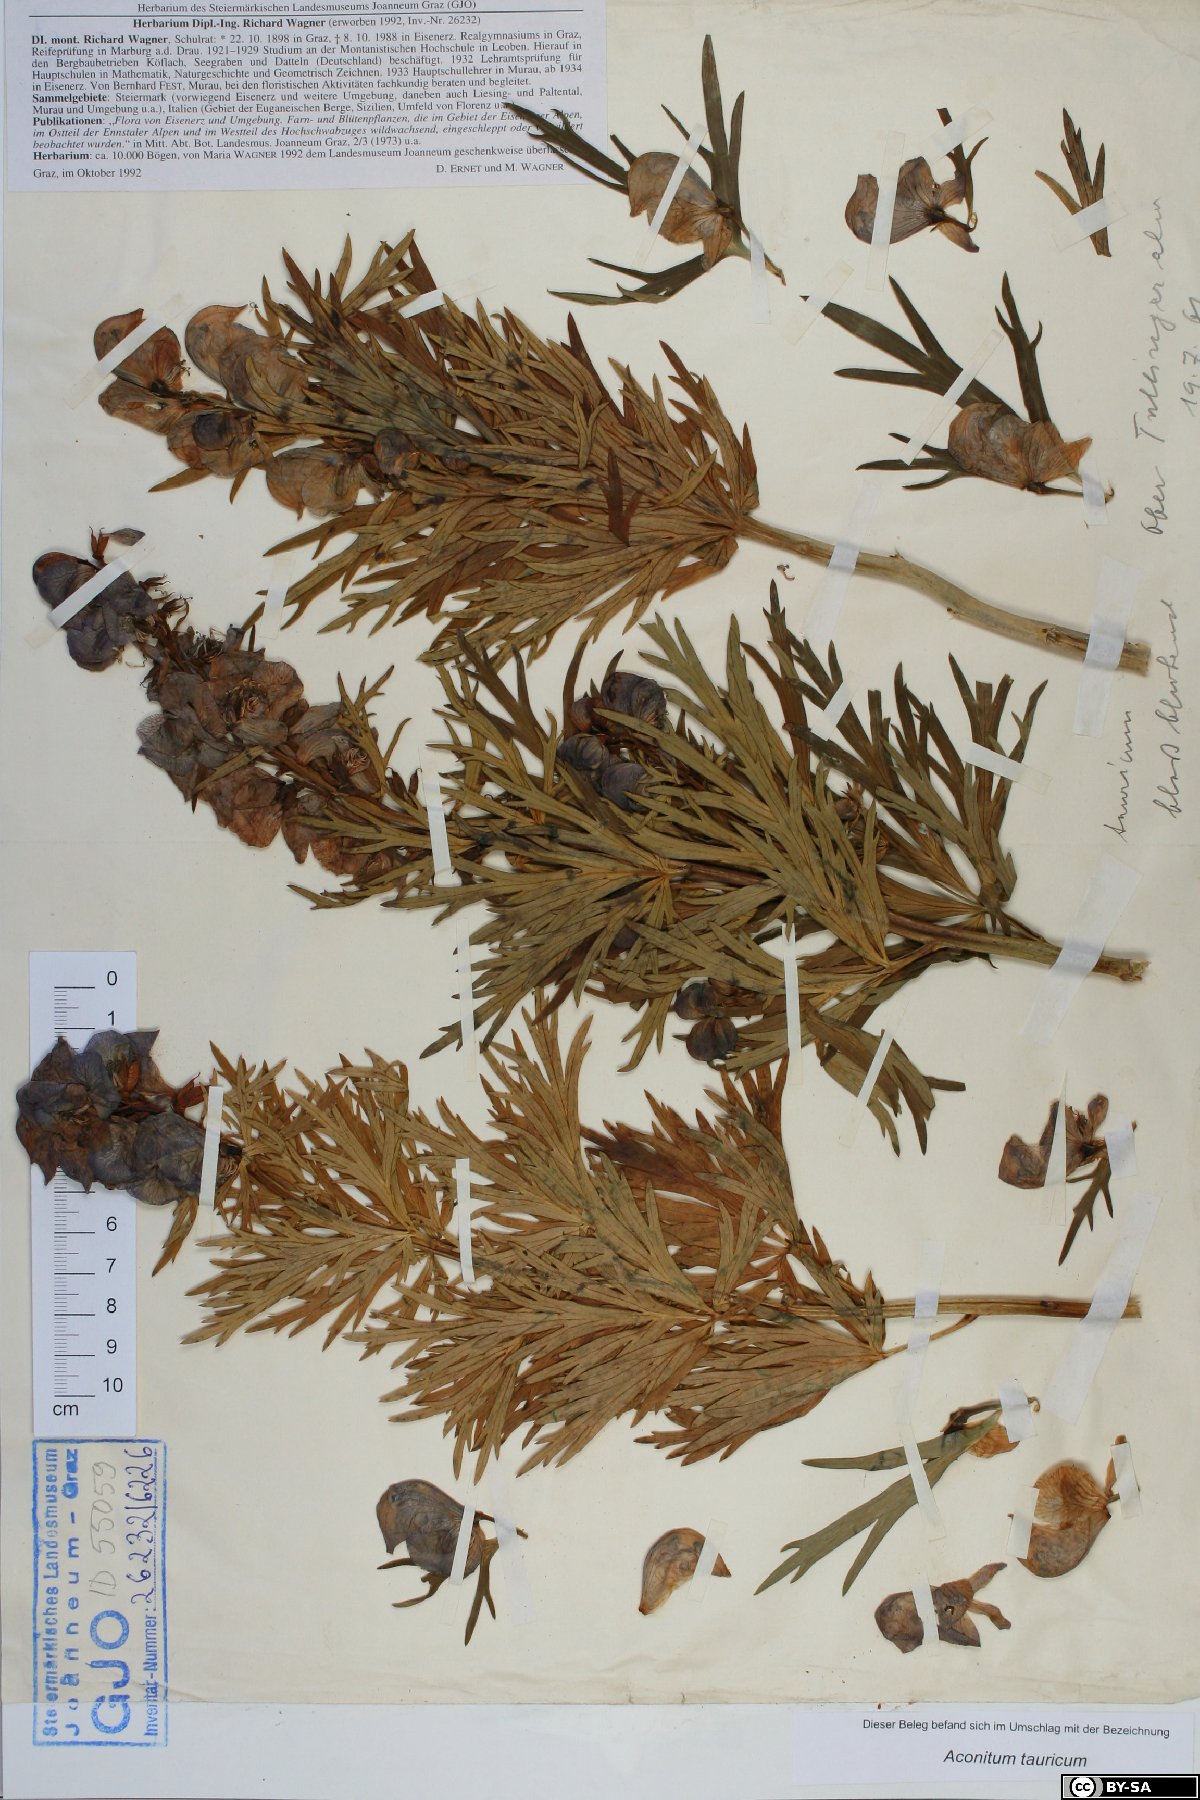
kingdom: Plantae
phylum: Tracheophyta
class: Magnoliopsida
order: Ranunculales
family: Ranunculaceae
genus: Aconitum
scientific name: Aconitum tauricum
